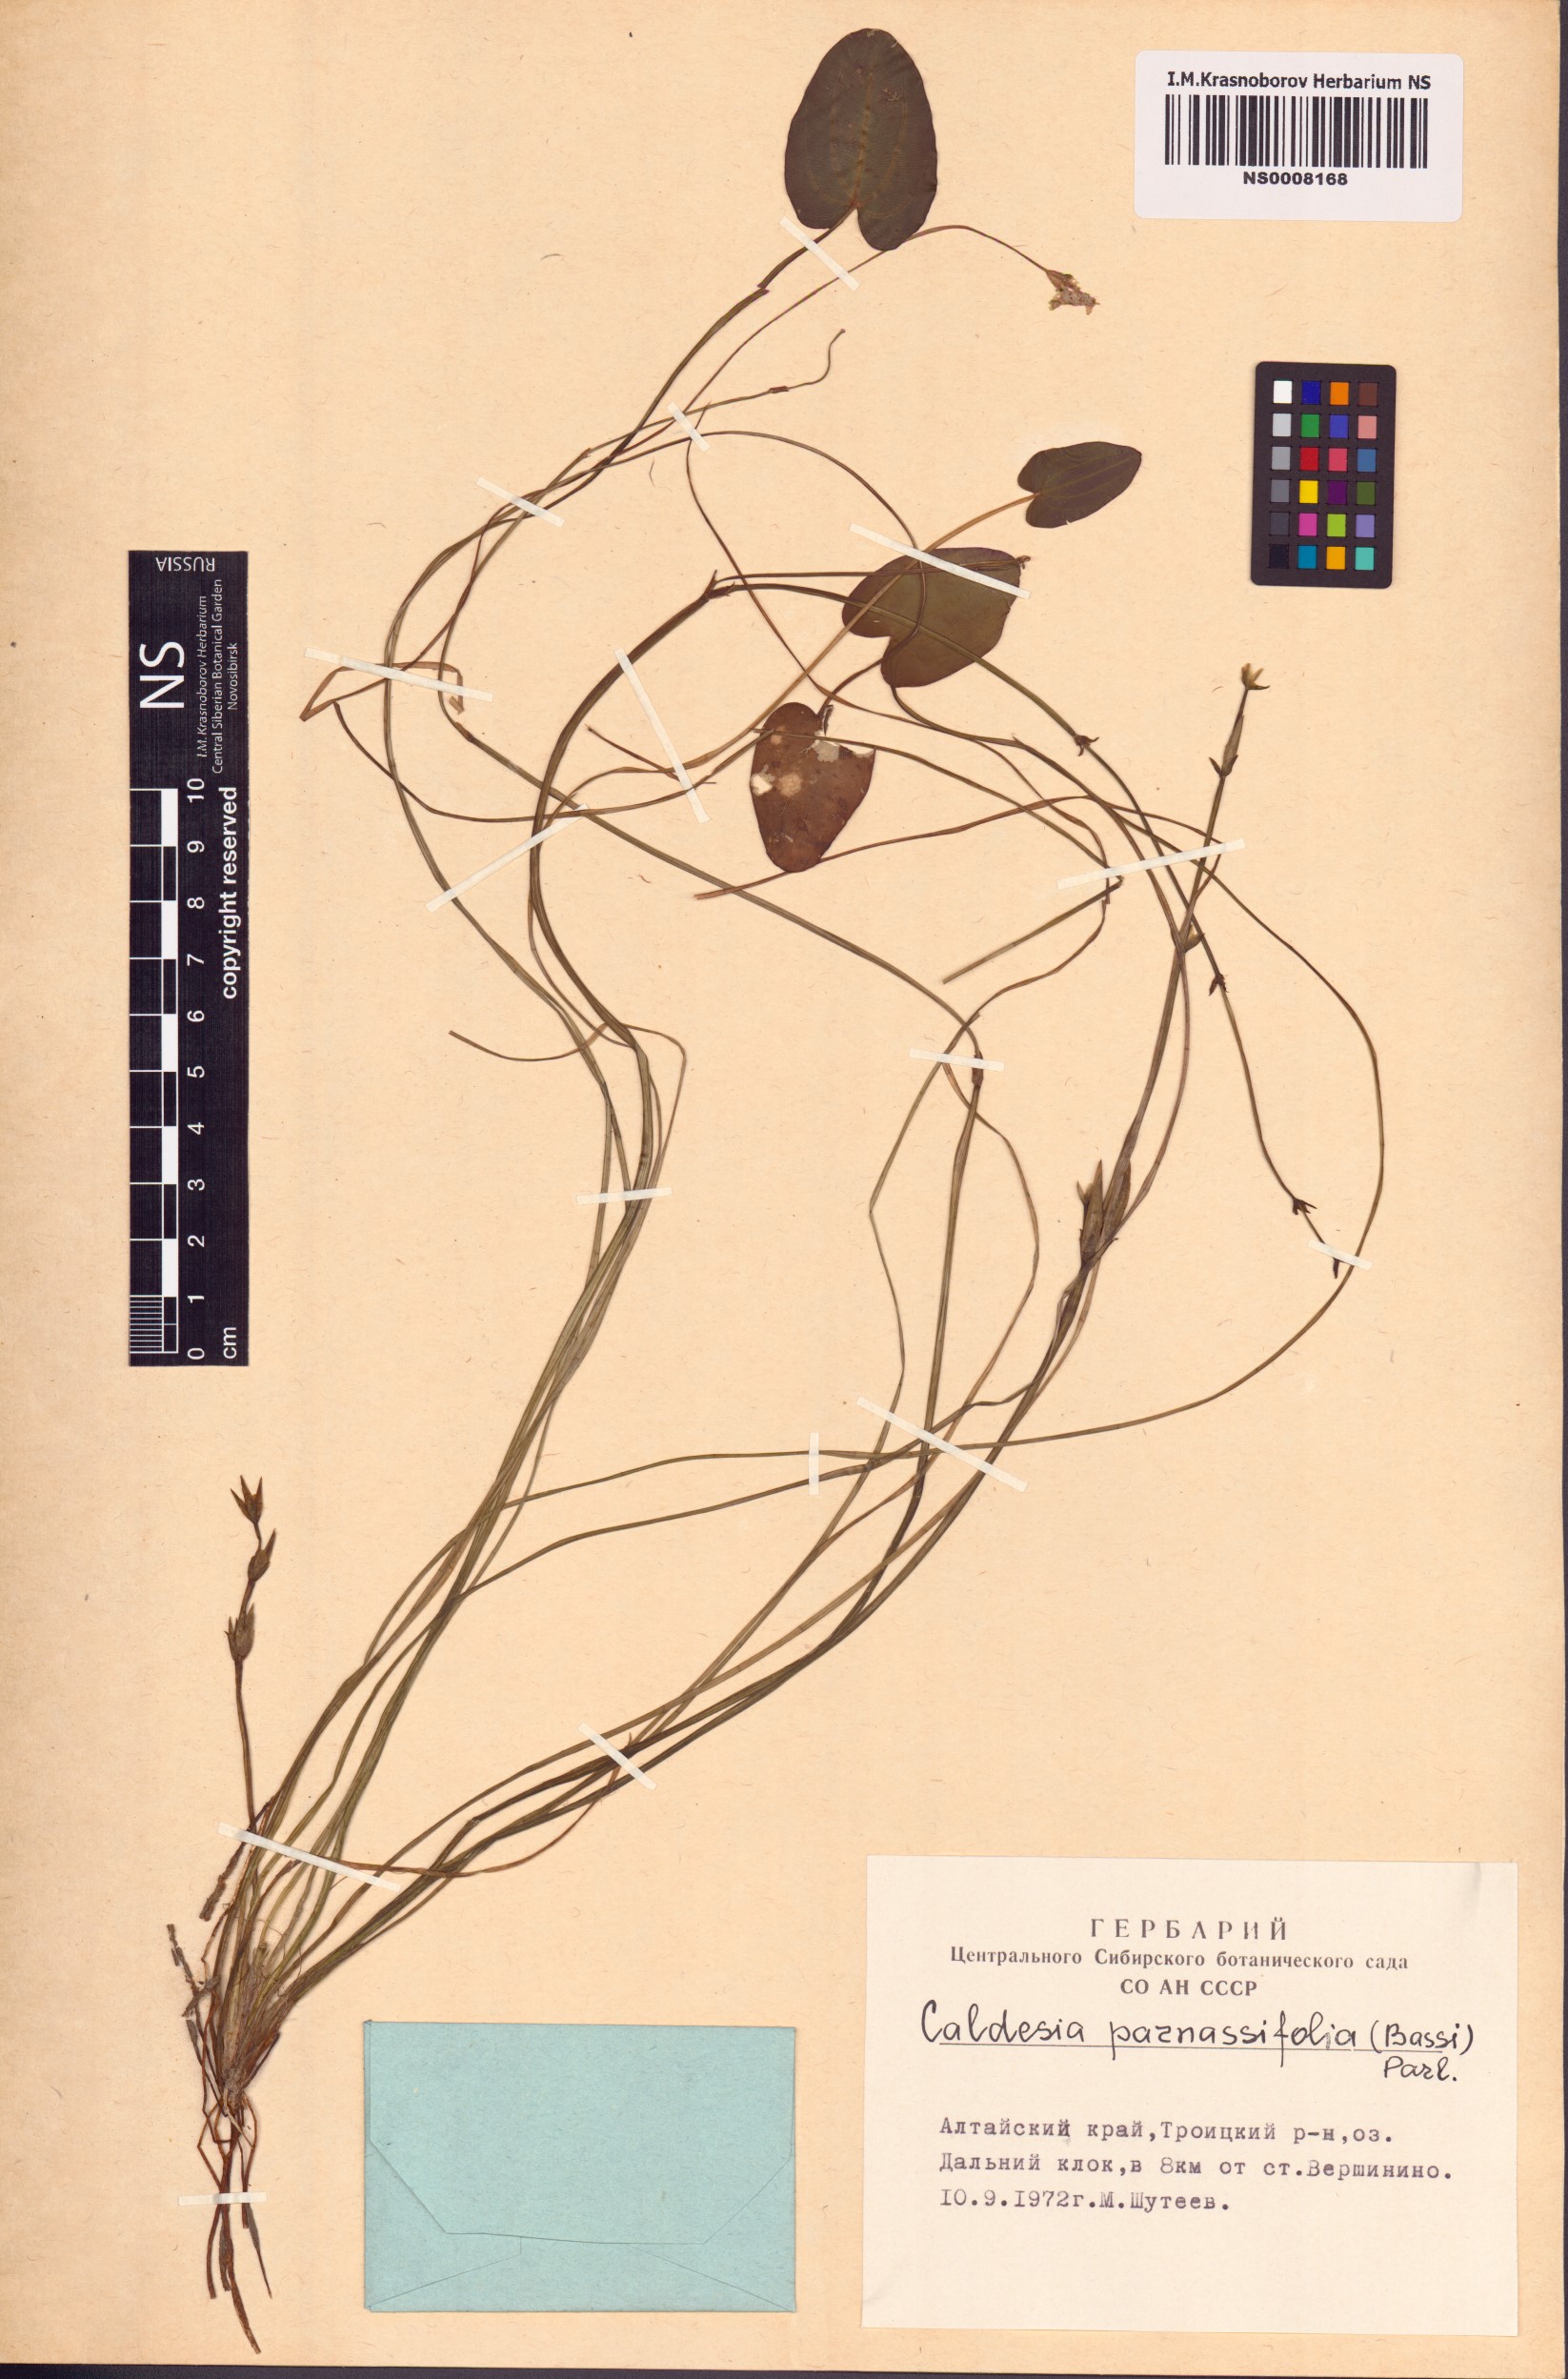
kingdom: Plantae
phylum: Tracheophyta
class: Liliopsida
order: Alismatales
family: Alismataceae
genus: Caldesia
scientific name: Caldesia parnassifolia
